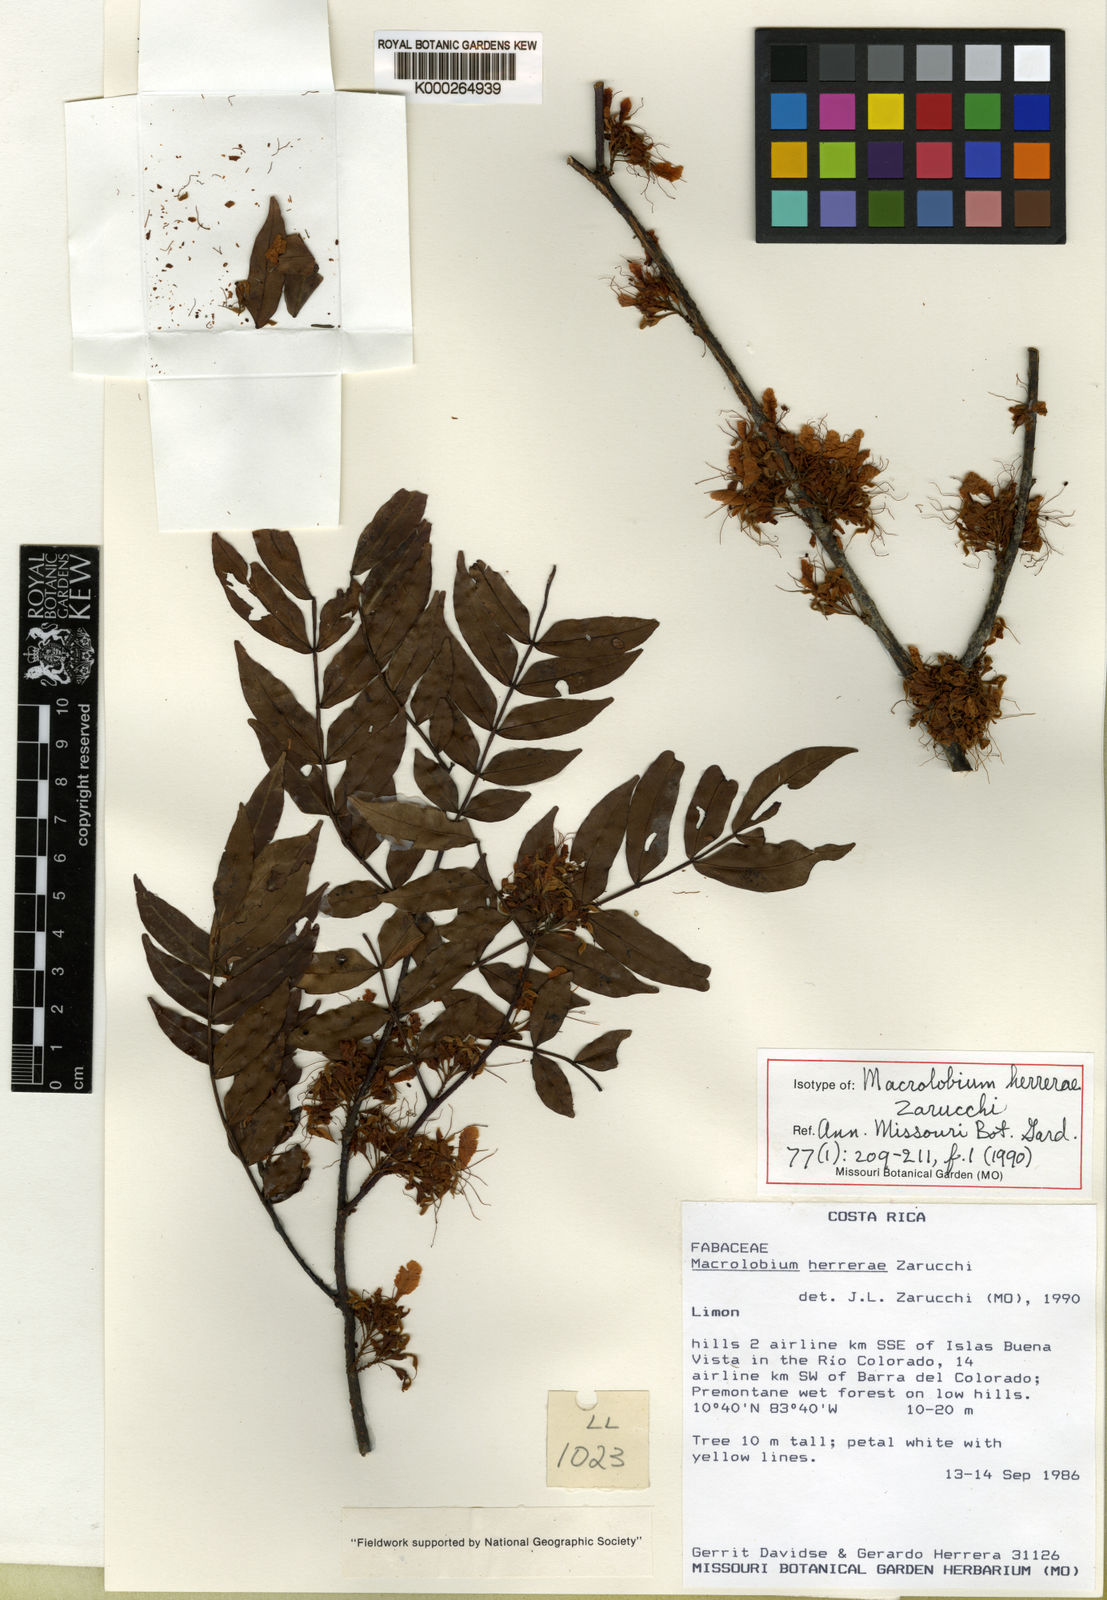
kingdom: Plantae
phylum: Tracheophyta
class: Magnoliopsida
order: Fabales
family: Fabaceae
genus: Macrolobium
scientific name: Macrolobium herrerae
